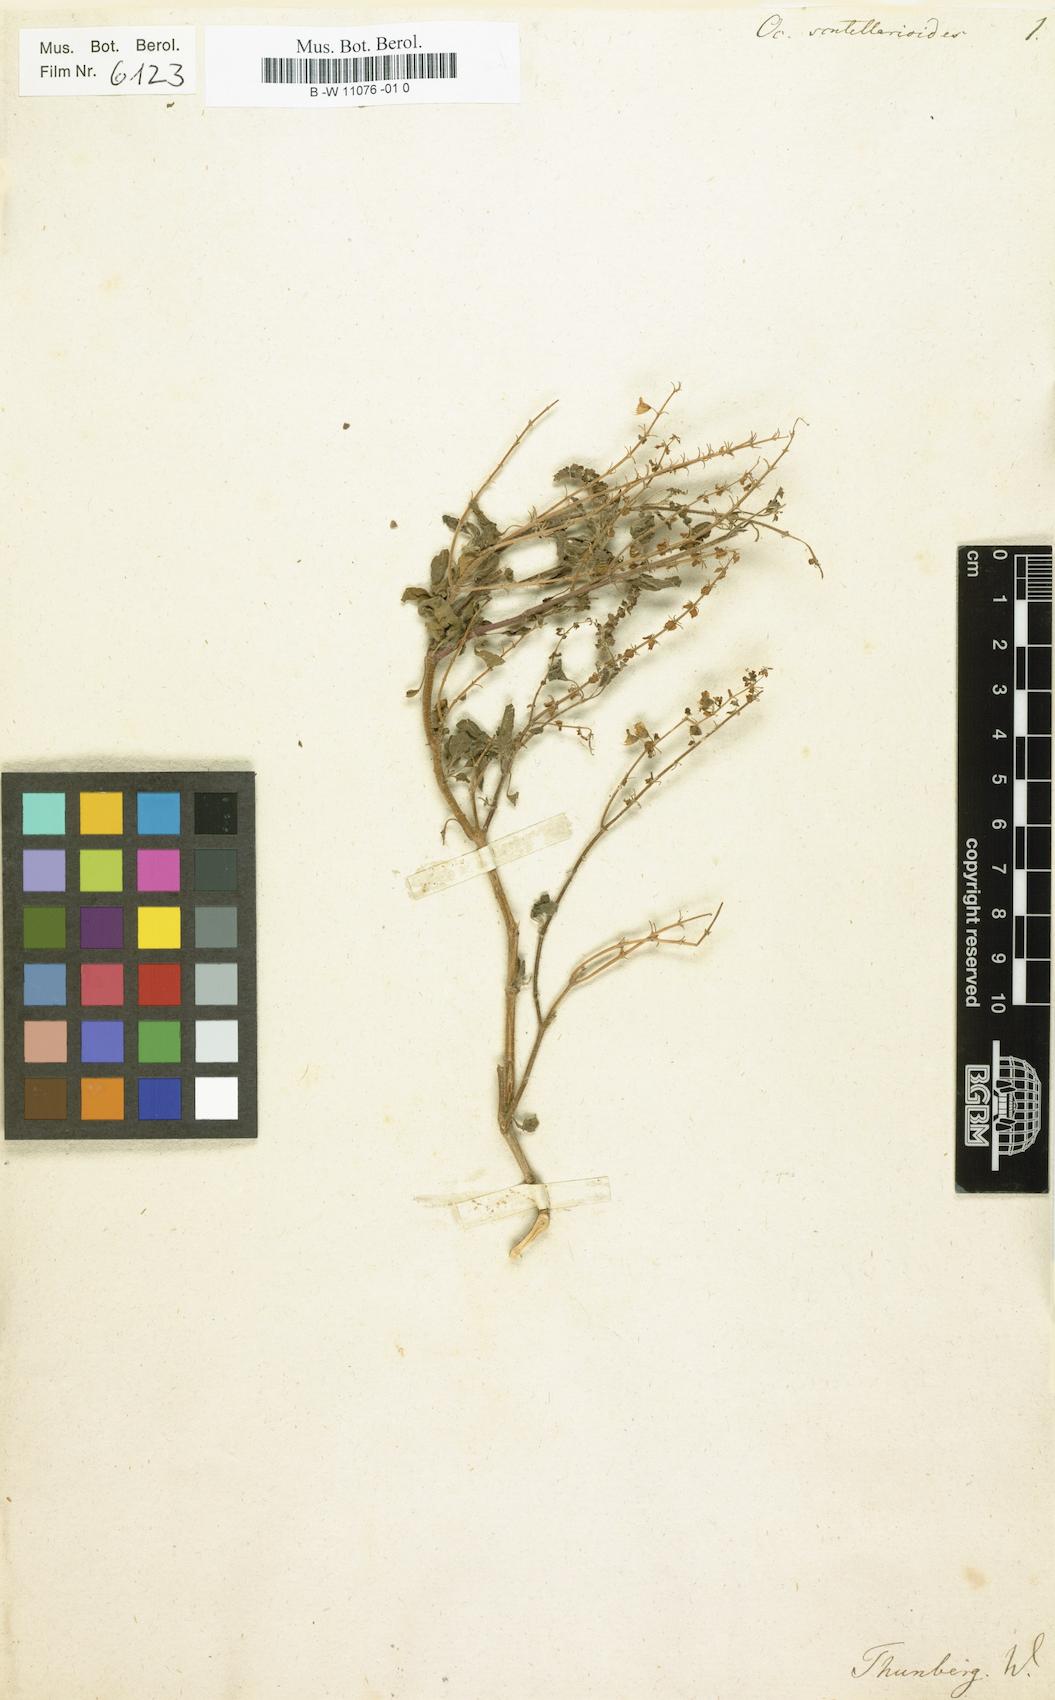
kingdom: Plantae
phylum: Tracheophyta
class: Magnoliopsida
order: Lamiales
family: Lamiaceae
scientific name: Lamiaceae
